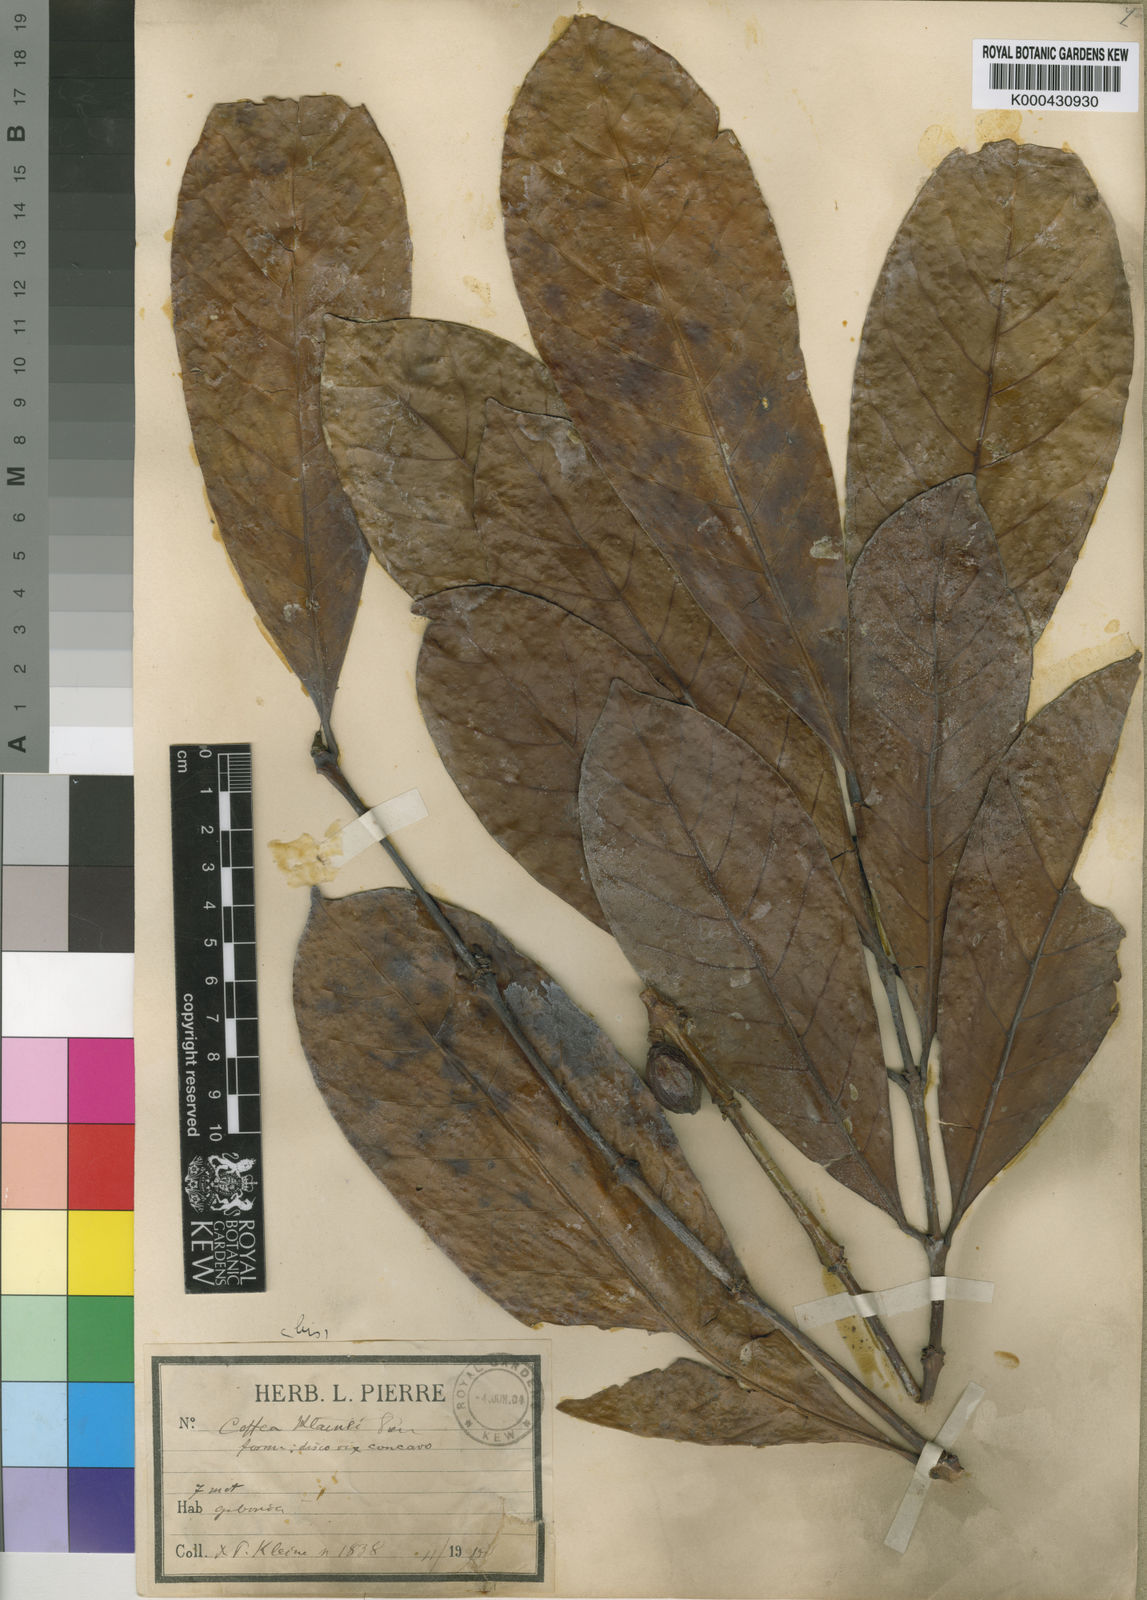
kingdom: Plantae
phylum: Tracheophyta
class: Magnoliopsida
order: Gentianales
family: Rubiaceae
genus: Coffea
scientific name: Coffea
